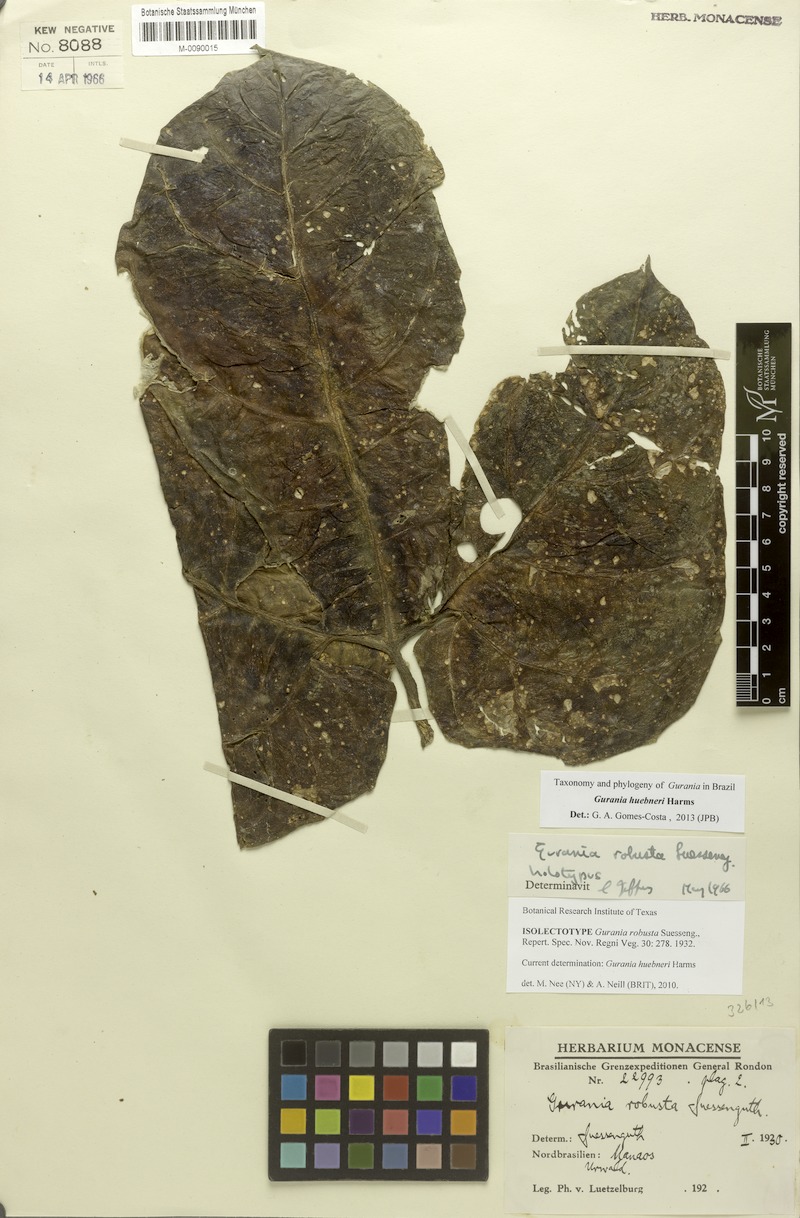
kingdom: Plantae
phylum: Tracheophyta
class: Magnoliopsida
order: Cucurbitales
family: Cucurbitaceae
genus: Gurania
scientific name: Gurania huebneri
